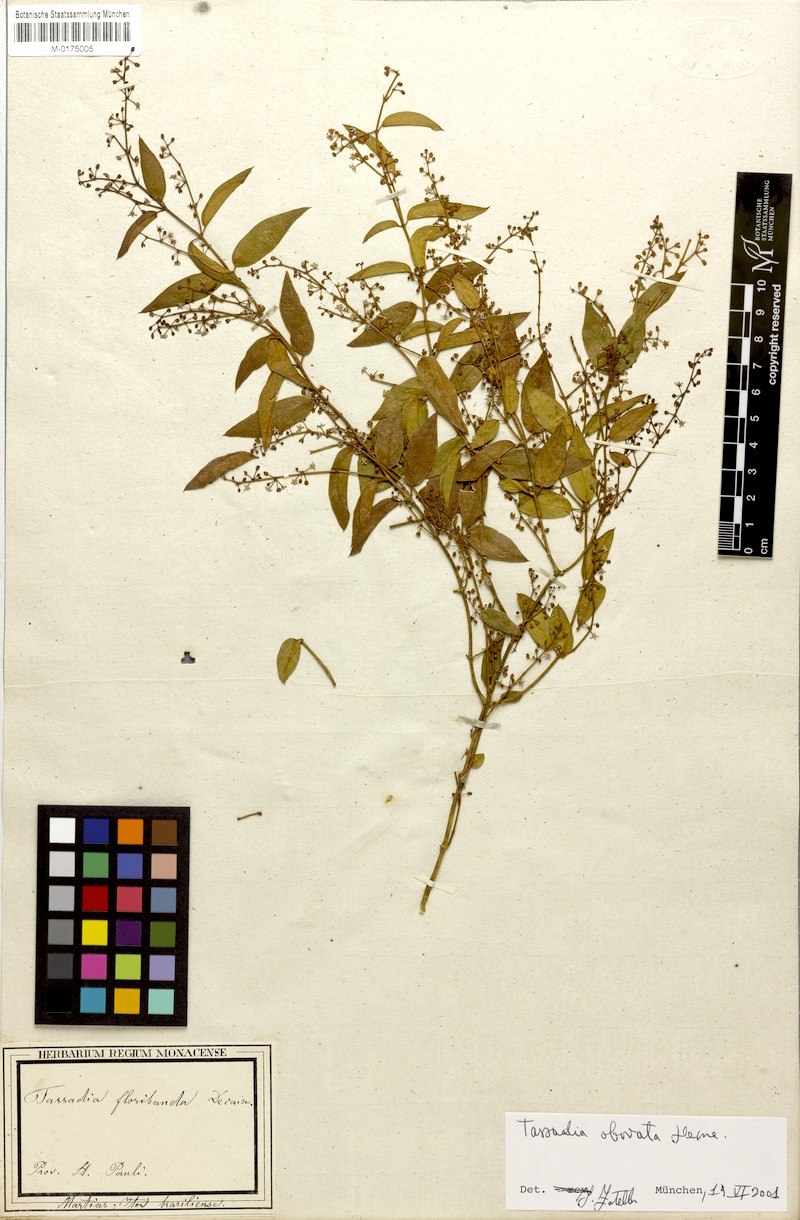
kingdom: Plantae
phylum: Tracheophyta
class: Magnoliopsida
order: Gentianales
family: Apocynaceae
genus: Tassadia
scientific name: Tassadia obovata
